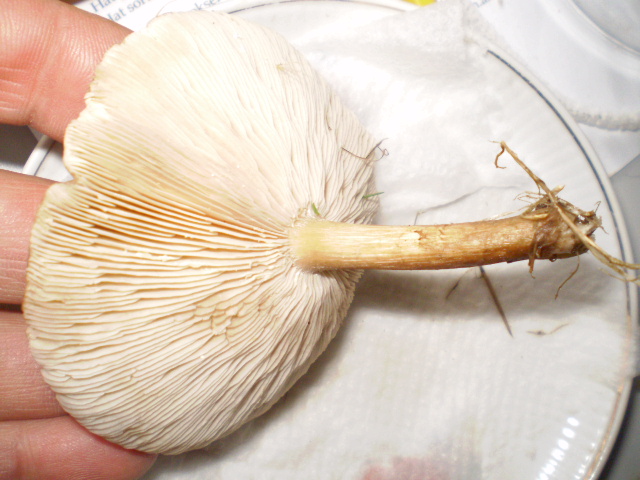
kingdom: Fungi
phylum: Basidiomycota
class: Agaricomycetes
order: Agaricales
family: Tricholomataceae
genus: Melanoleuca
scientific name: Melanoleuca
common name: munkehat
